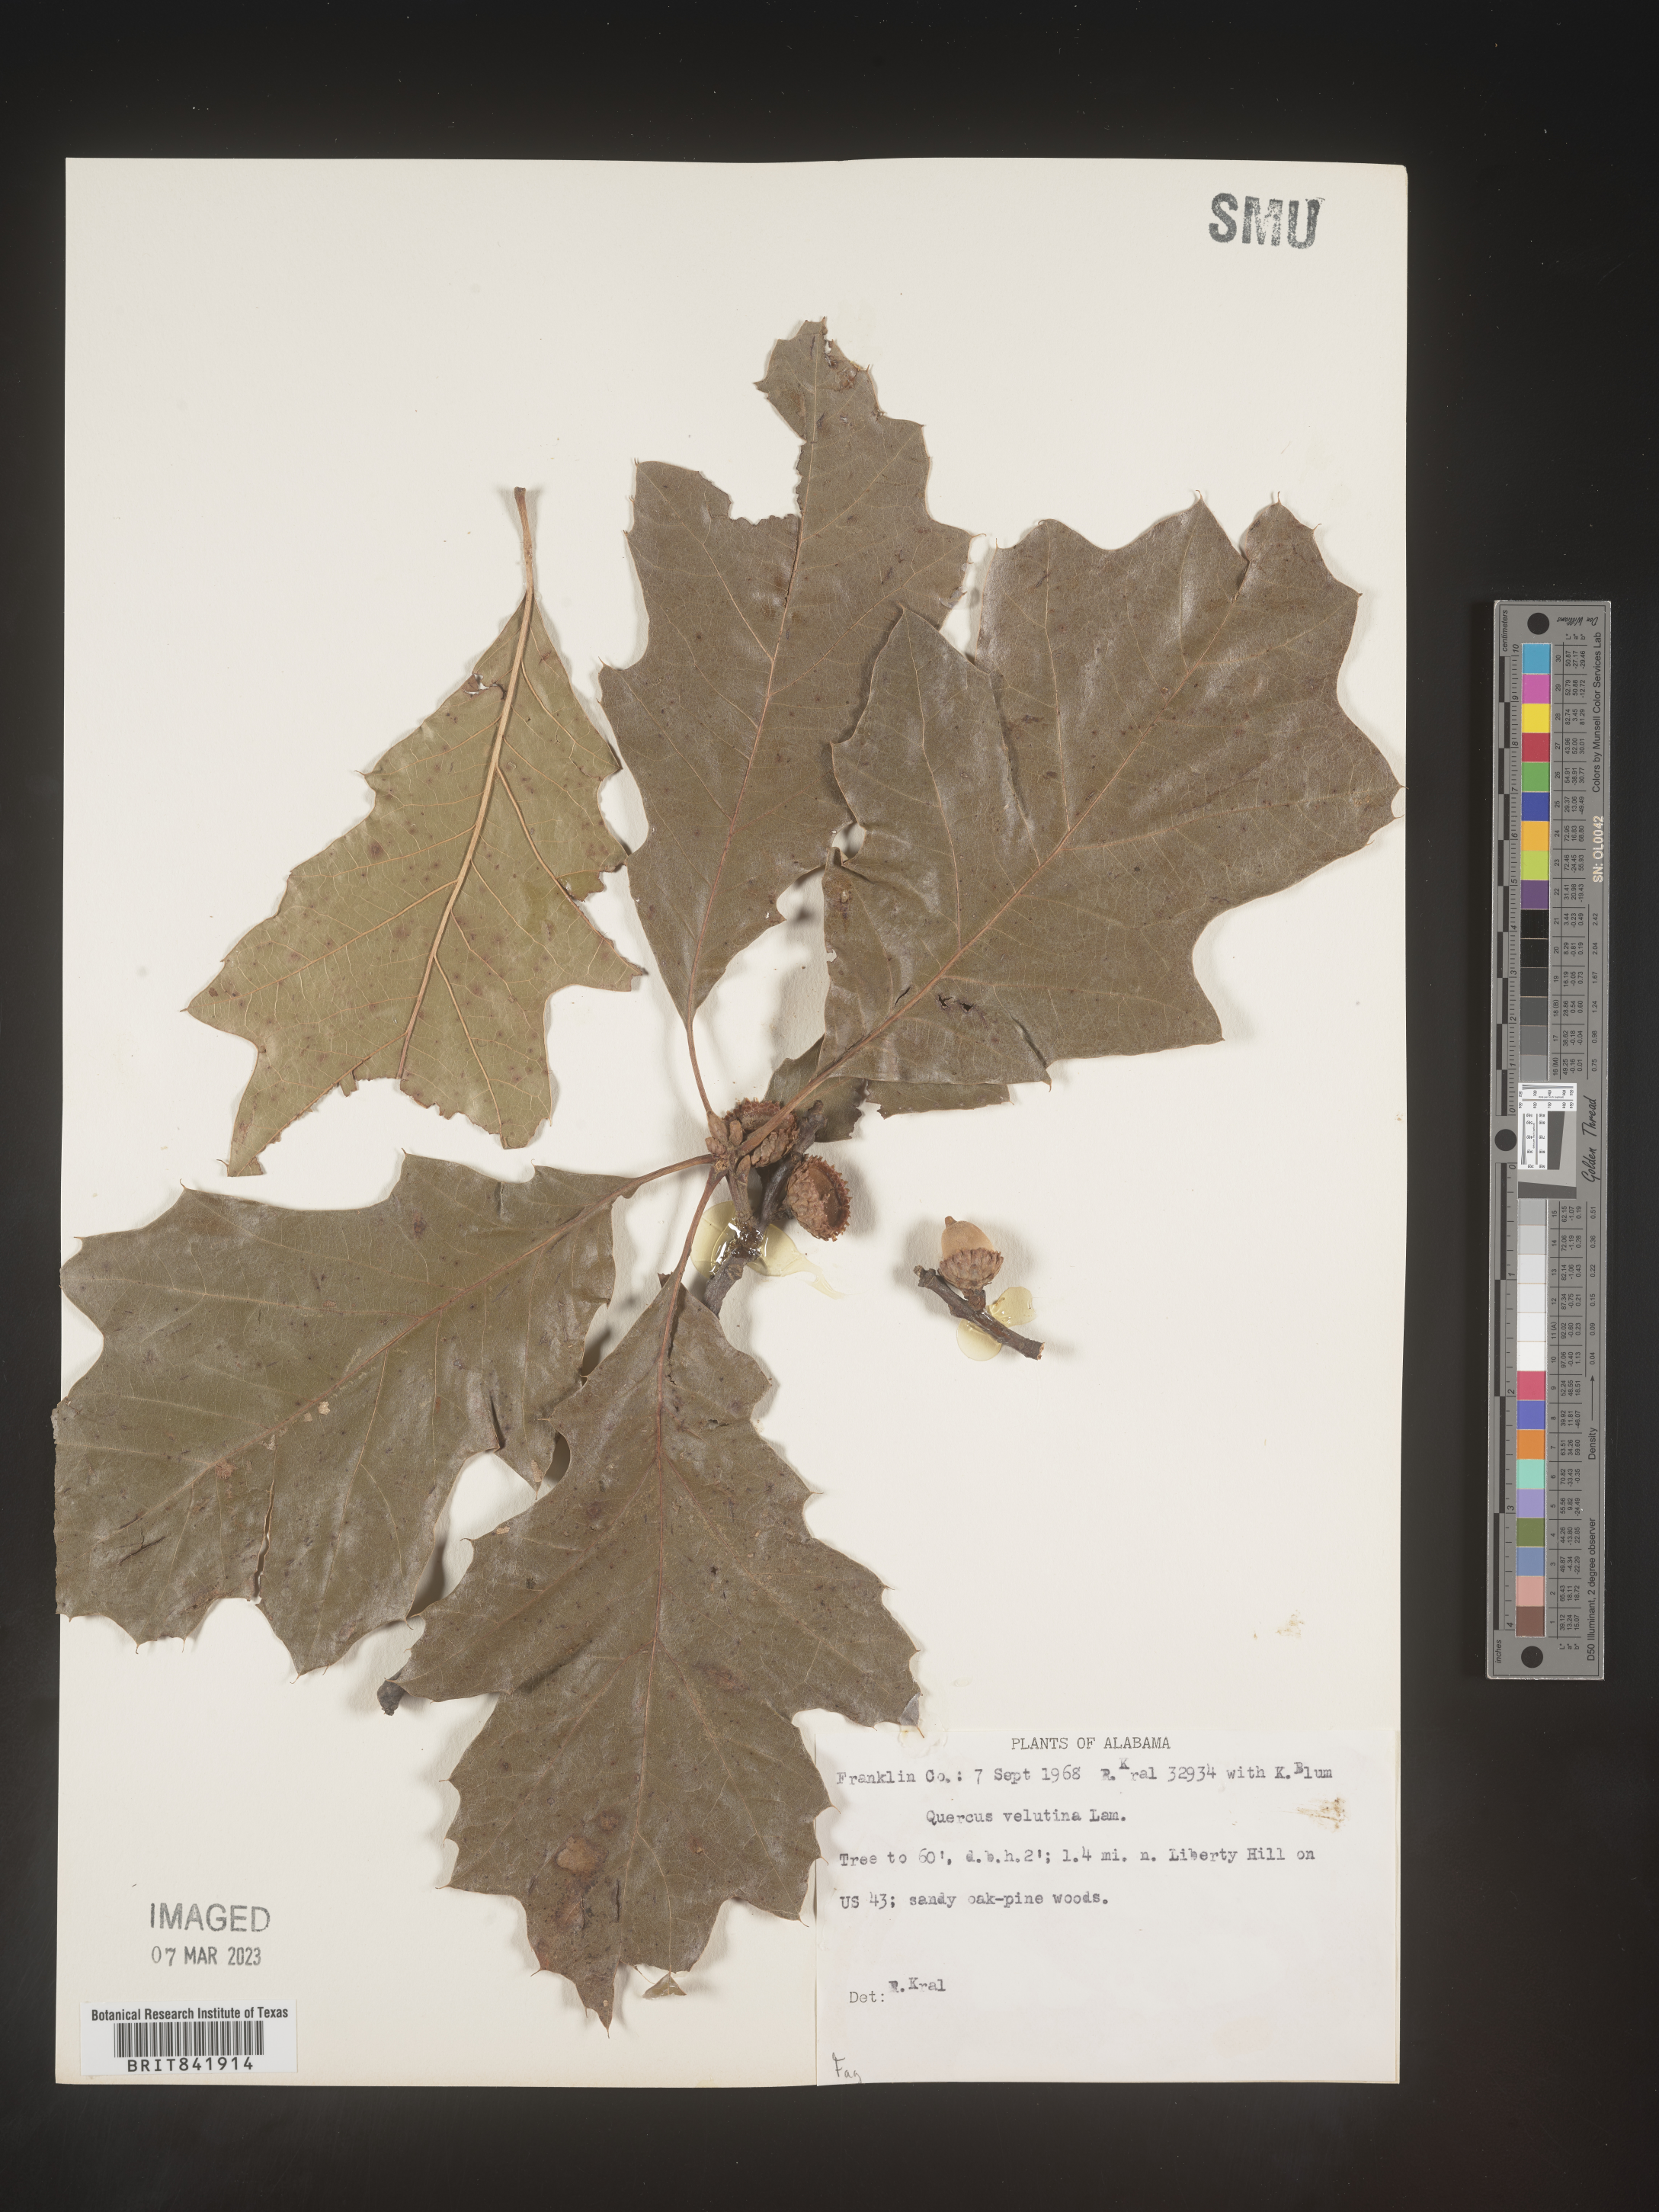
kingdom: Plantae
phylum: Tracheophyta
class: Magnoliopsida
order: Fagales
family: Fagaceae
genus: Quercus
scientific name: Quercus velutina
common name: Black oak
